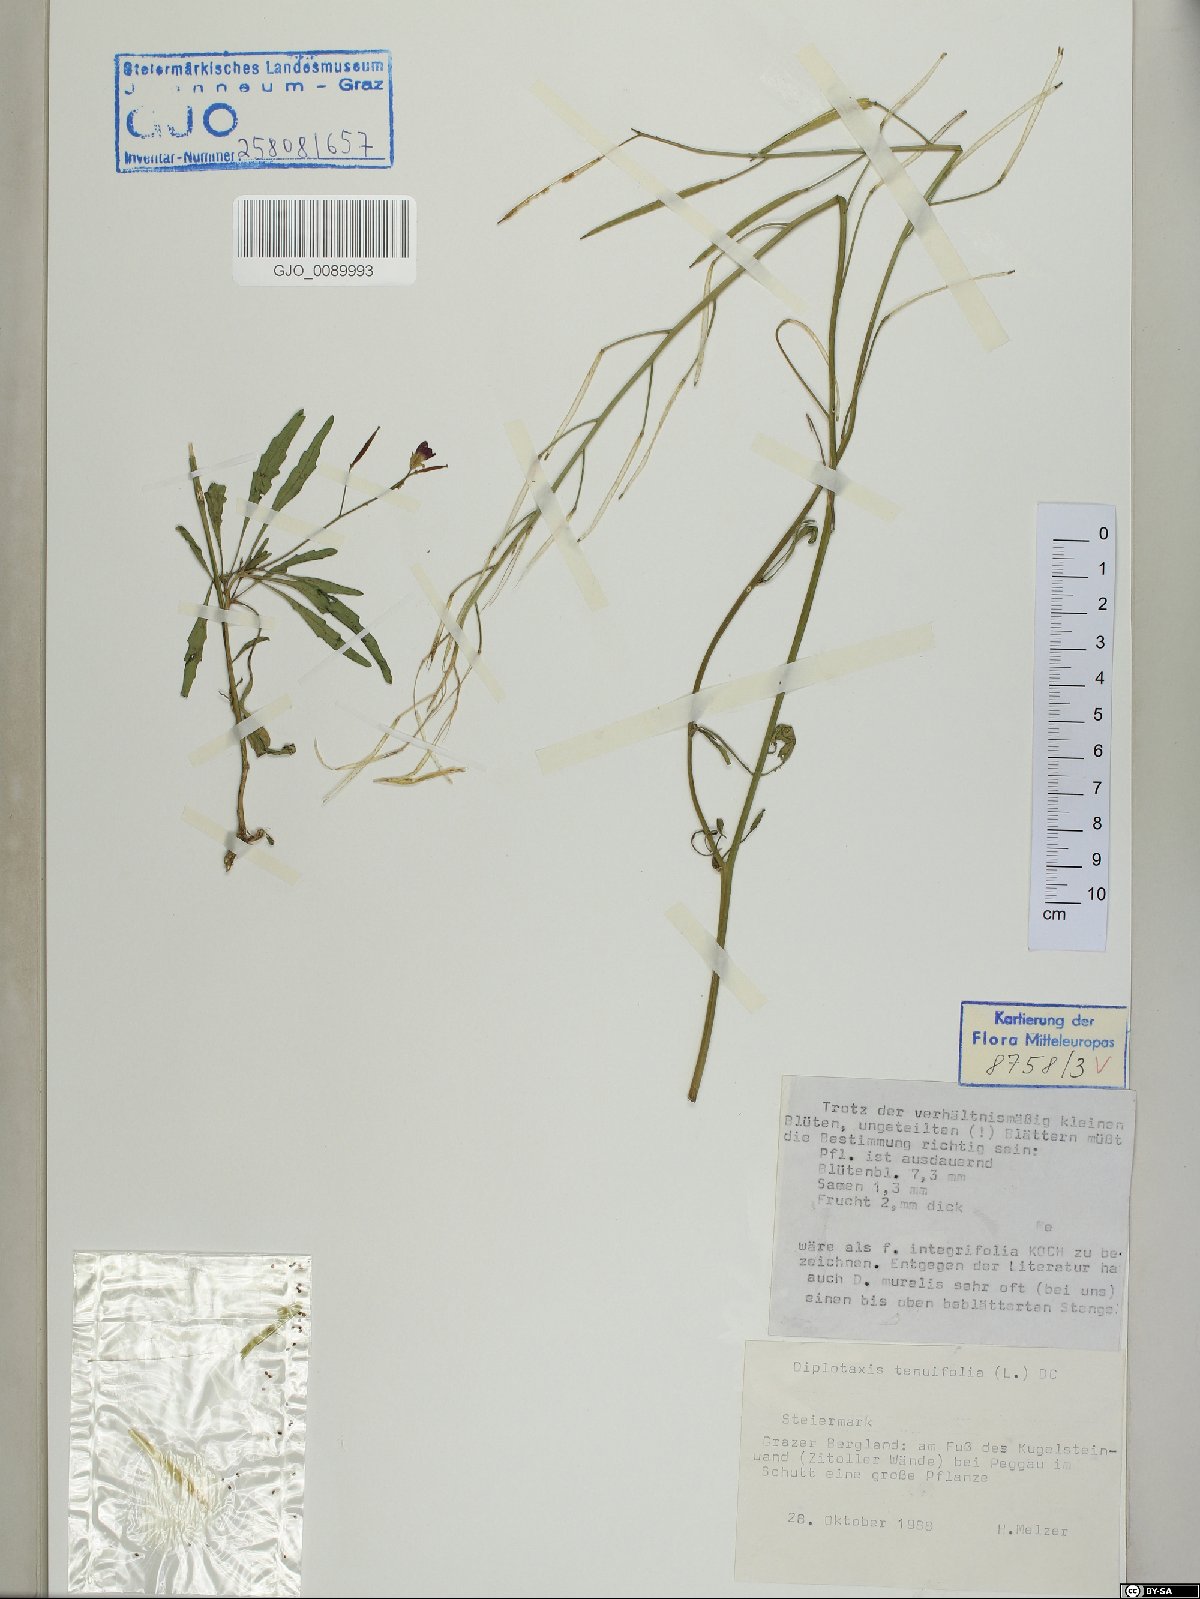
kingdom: Plantae
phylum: Tracheophyta
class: Magnoliopsida
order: Brassicales
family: Brassicaceae
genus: Diplotaxis
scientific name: Diplotaxis tenuifolia
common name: Perennial wall-rocket
